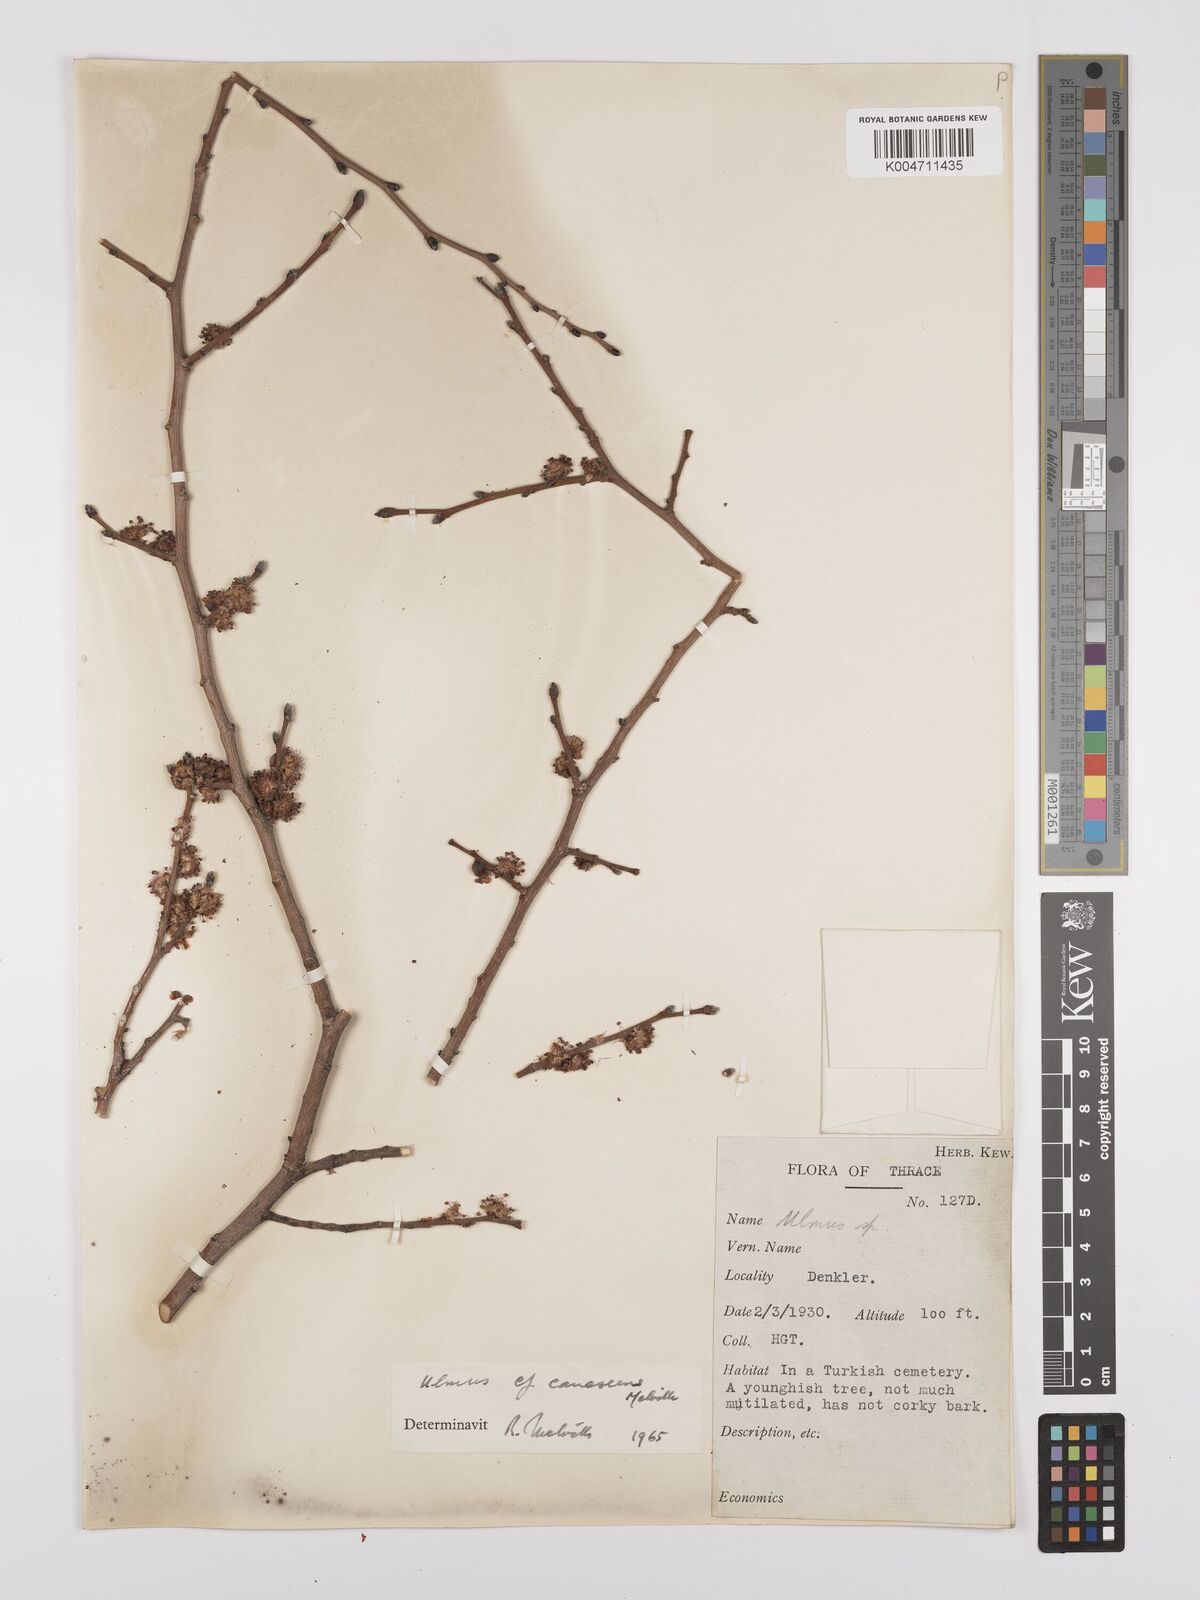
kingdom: Plantae
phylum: Tracheophyta
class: Magnoliopsida
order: Rosales
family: Ulmaceae
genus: Ulmus
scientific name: Ulmus
